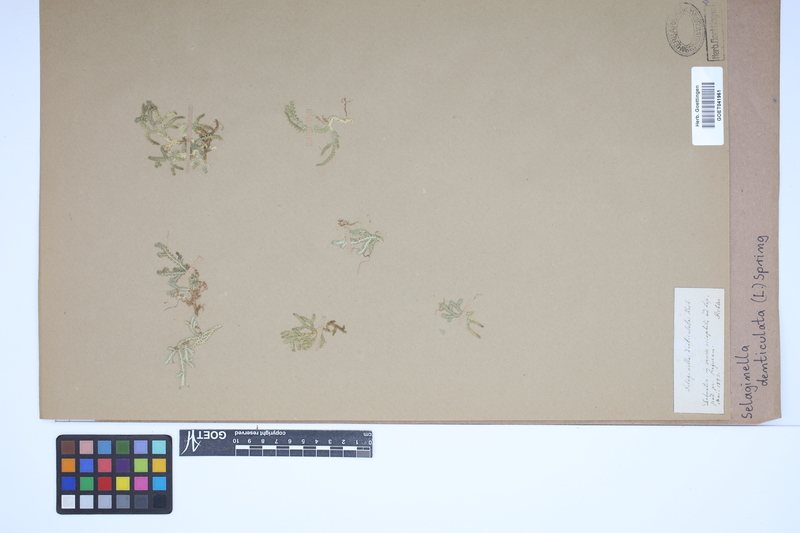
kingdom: Plantae
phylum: Tracheophyta
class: Lycopodiopsida
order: Selaginellales
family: Selaginellaceae
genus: Selaginella
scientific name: Selaginella denticulata
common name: Toothed-leaved clubmoss
